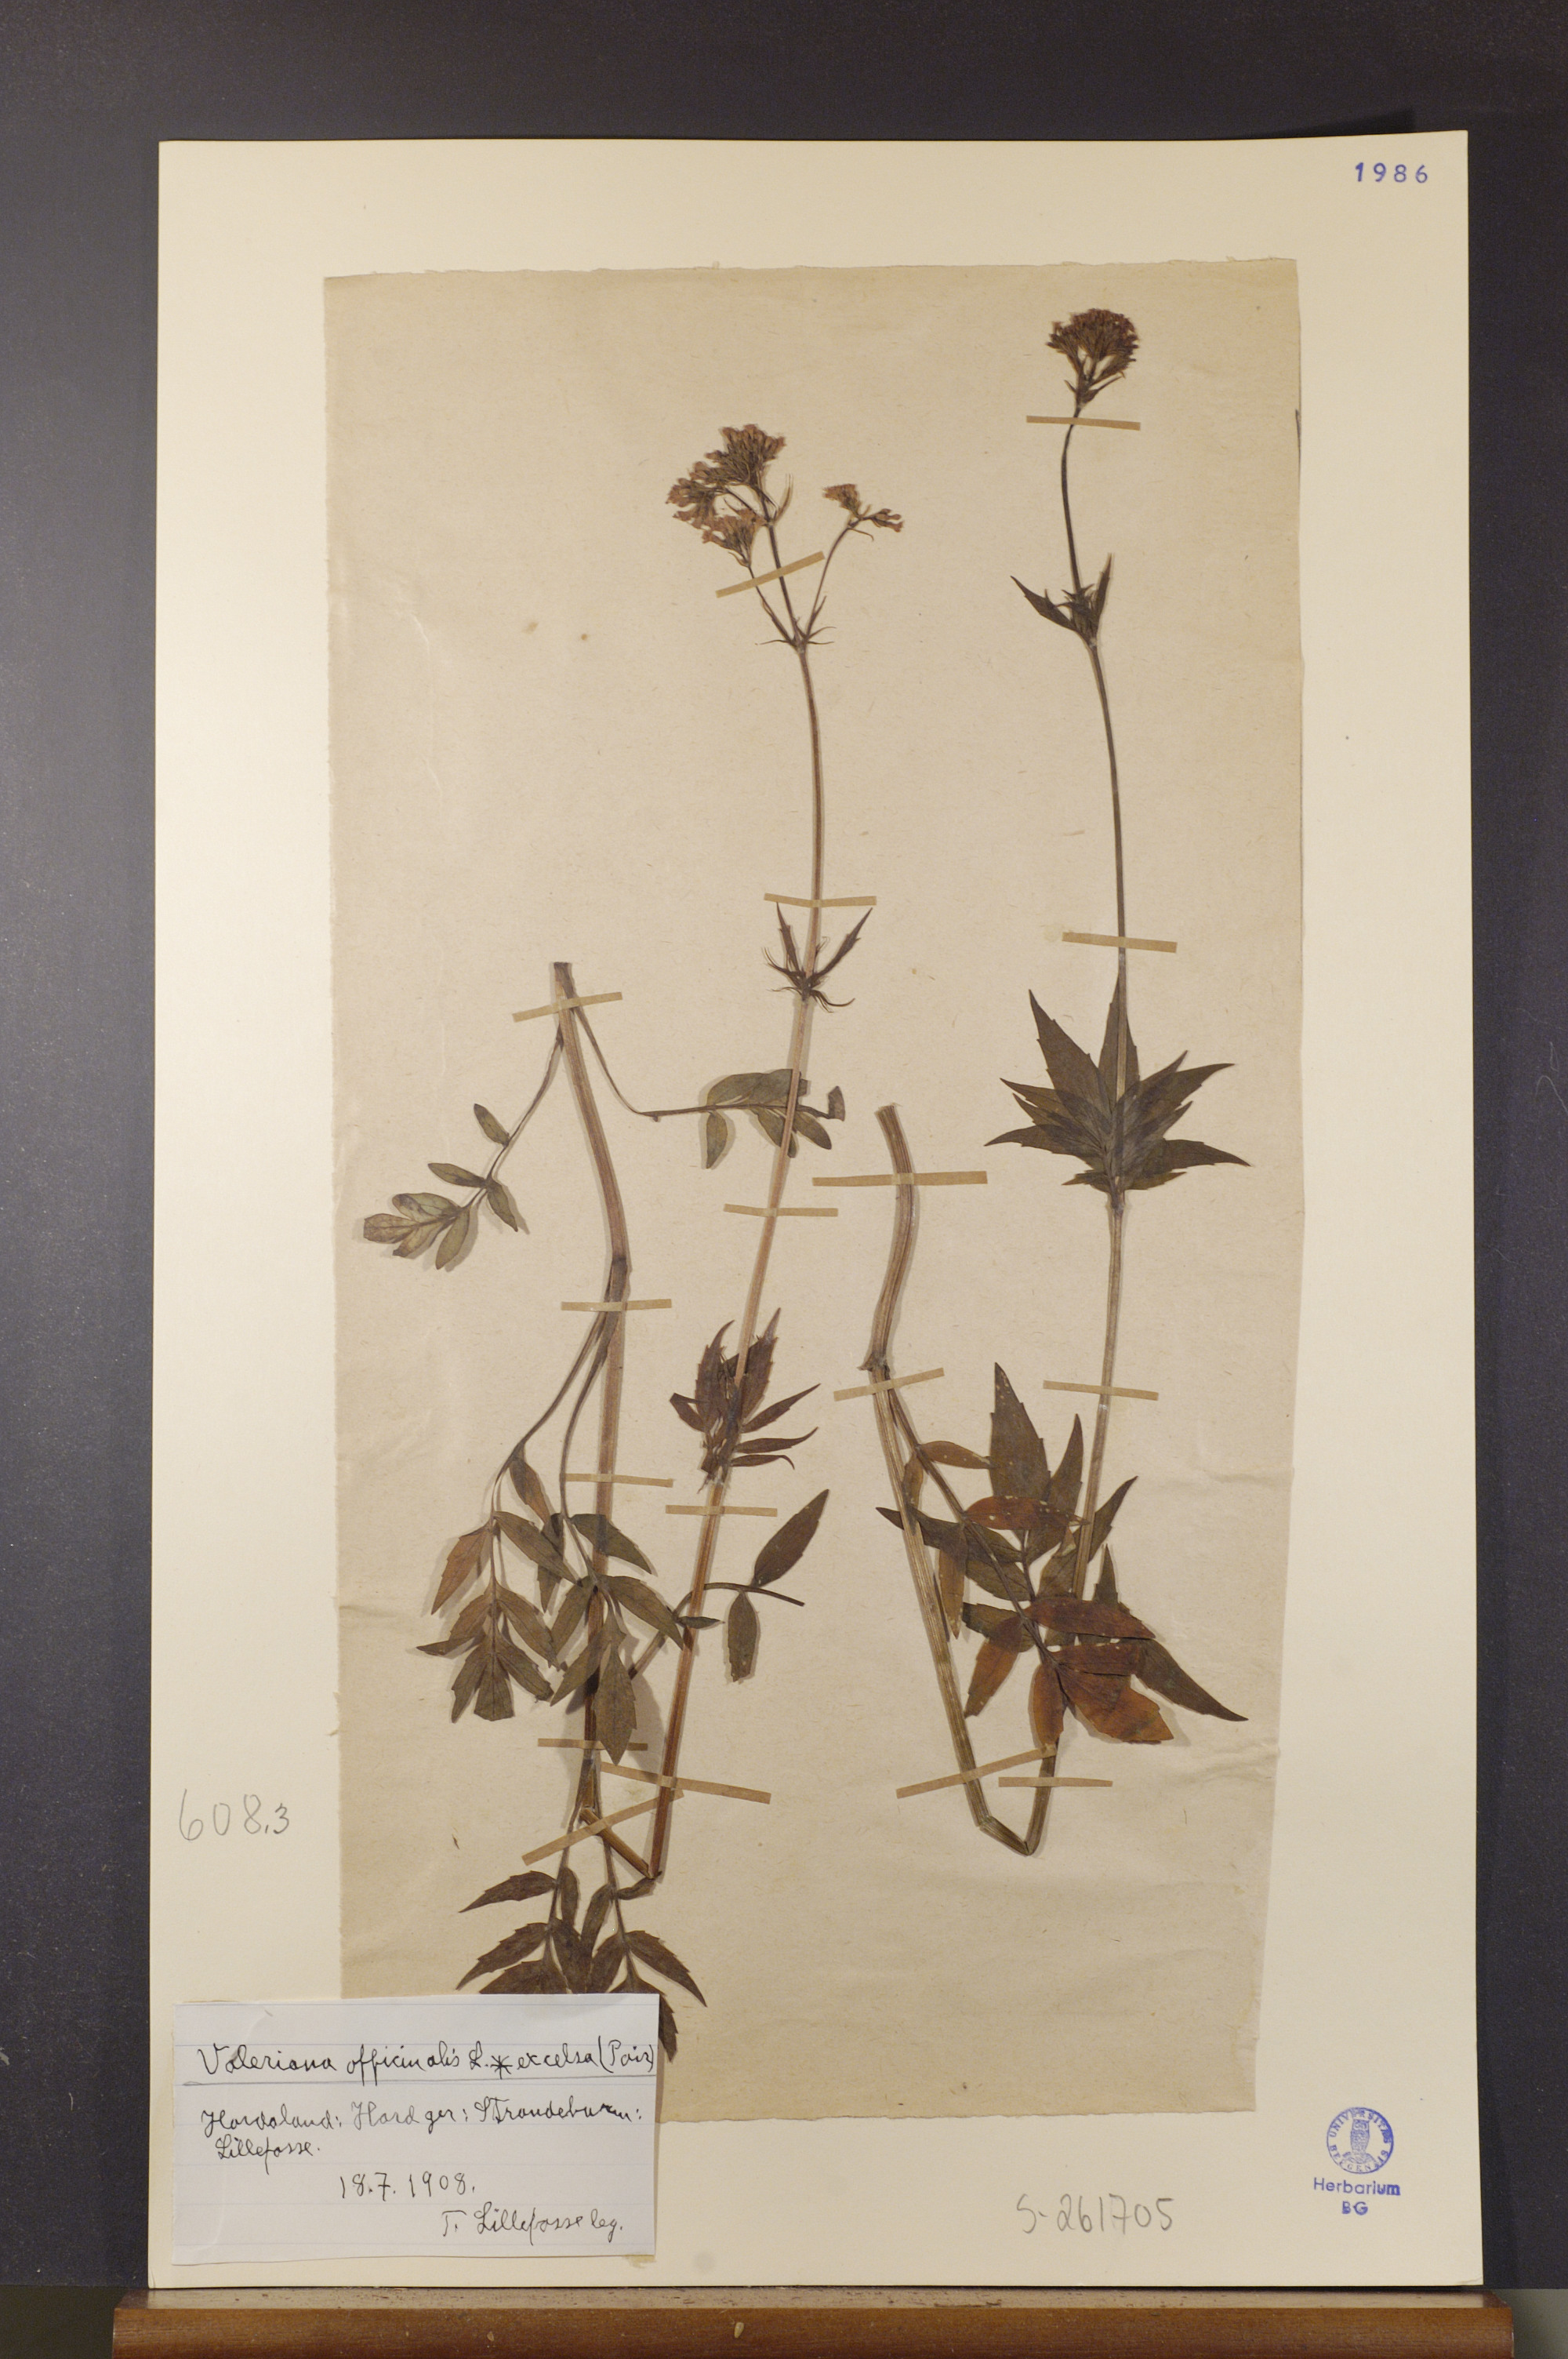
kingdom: Plantae
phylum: Tracheophyta
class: Magnoliopsida
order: Dipsacales
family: Caprifoliaceae
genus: Valeriana
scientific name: Valeriana sambucifolia
